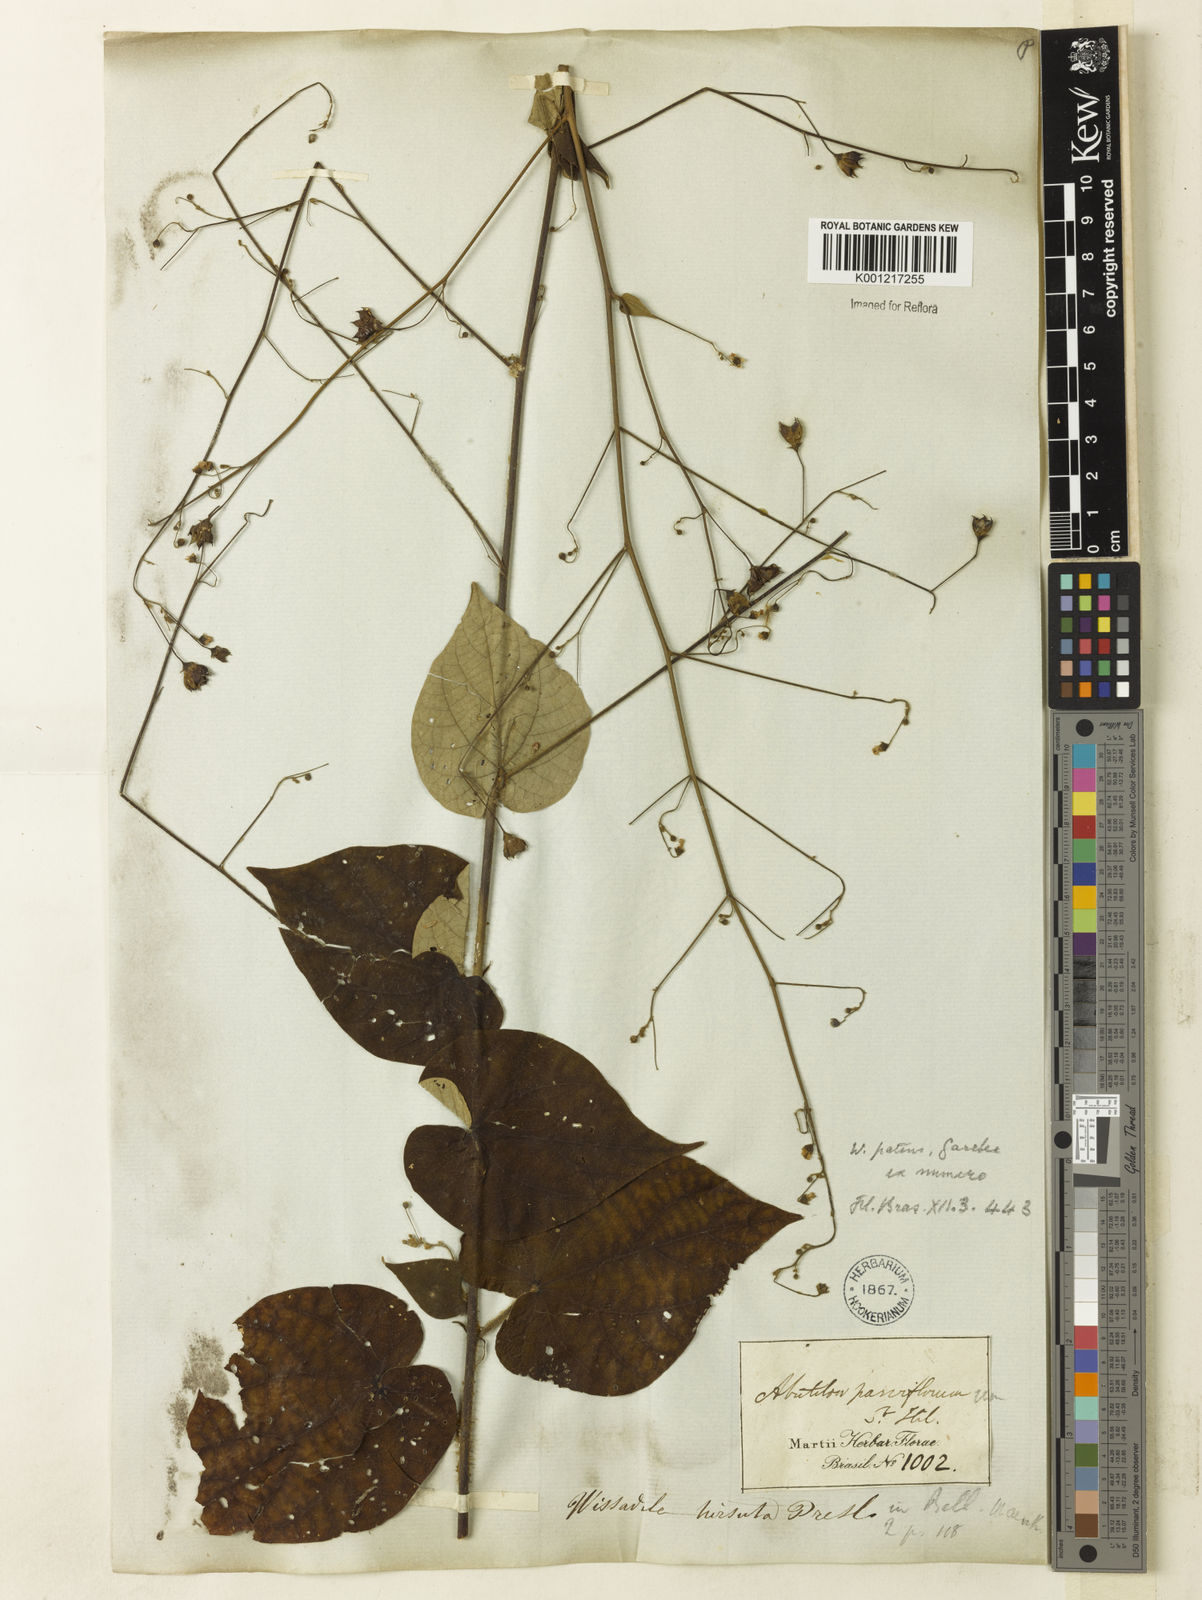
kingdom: Plantae
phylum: Tracheophyta
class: Magnoliopsida
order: Malvales
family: Malvaceae
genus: Wissadula
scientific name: Wissadula amplissima
